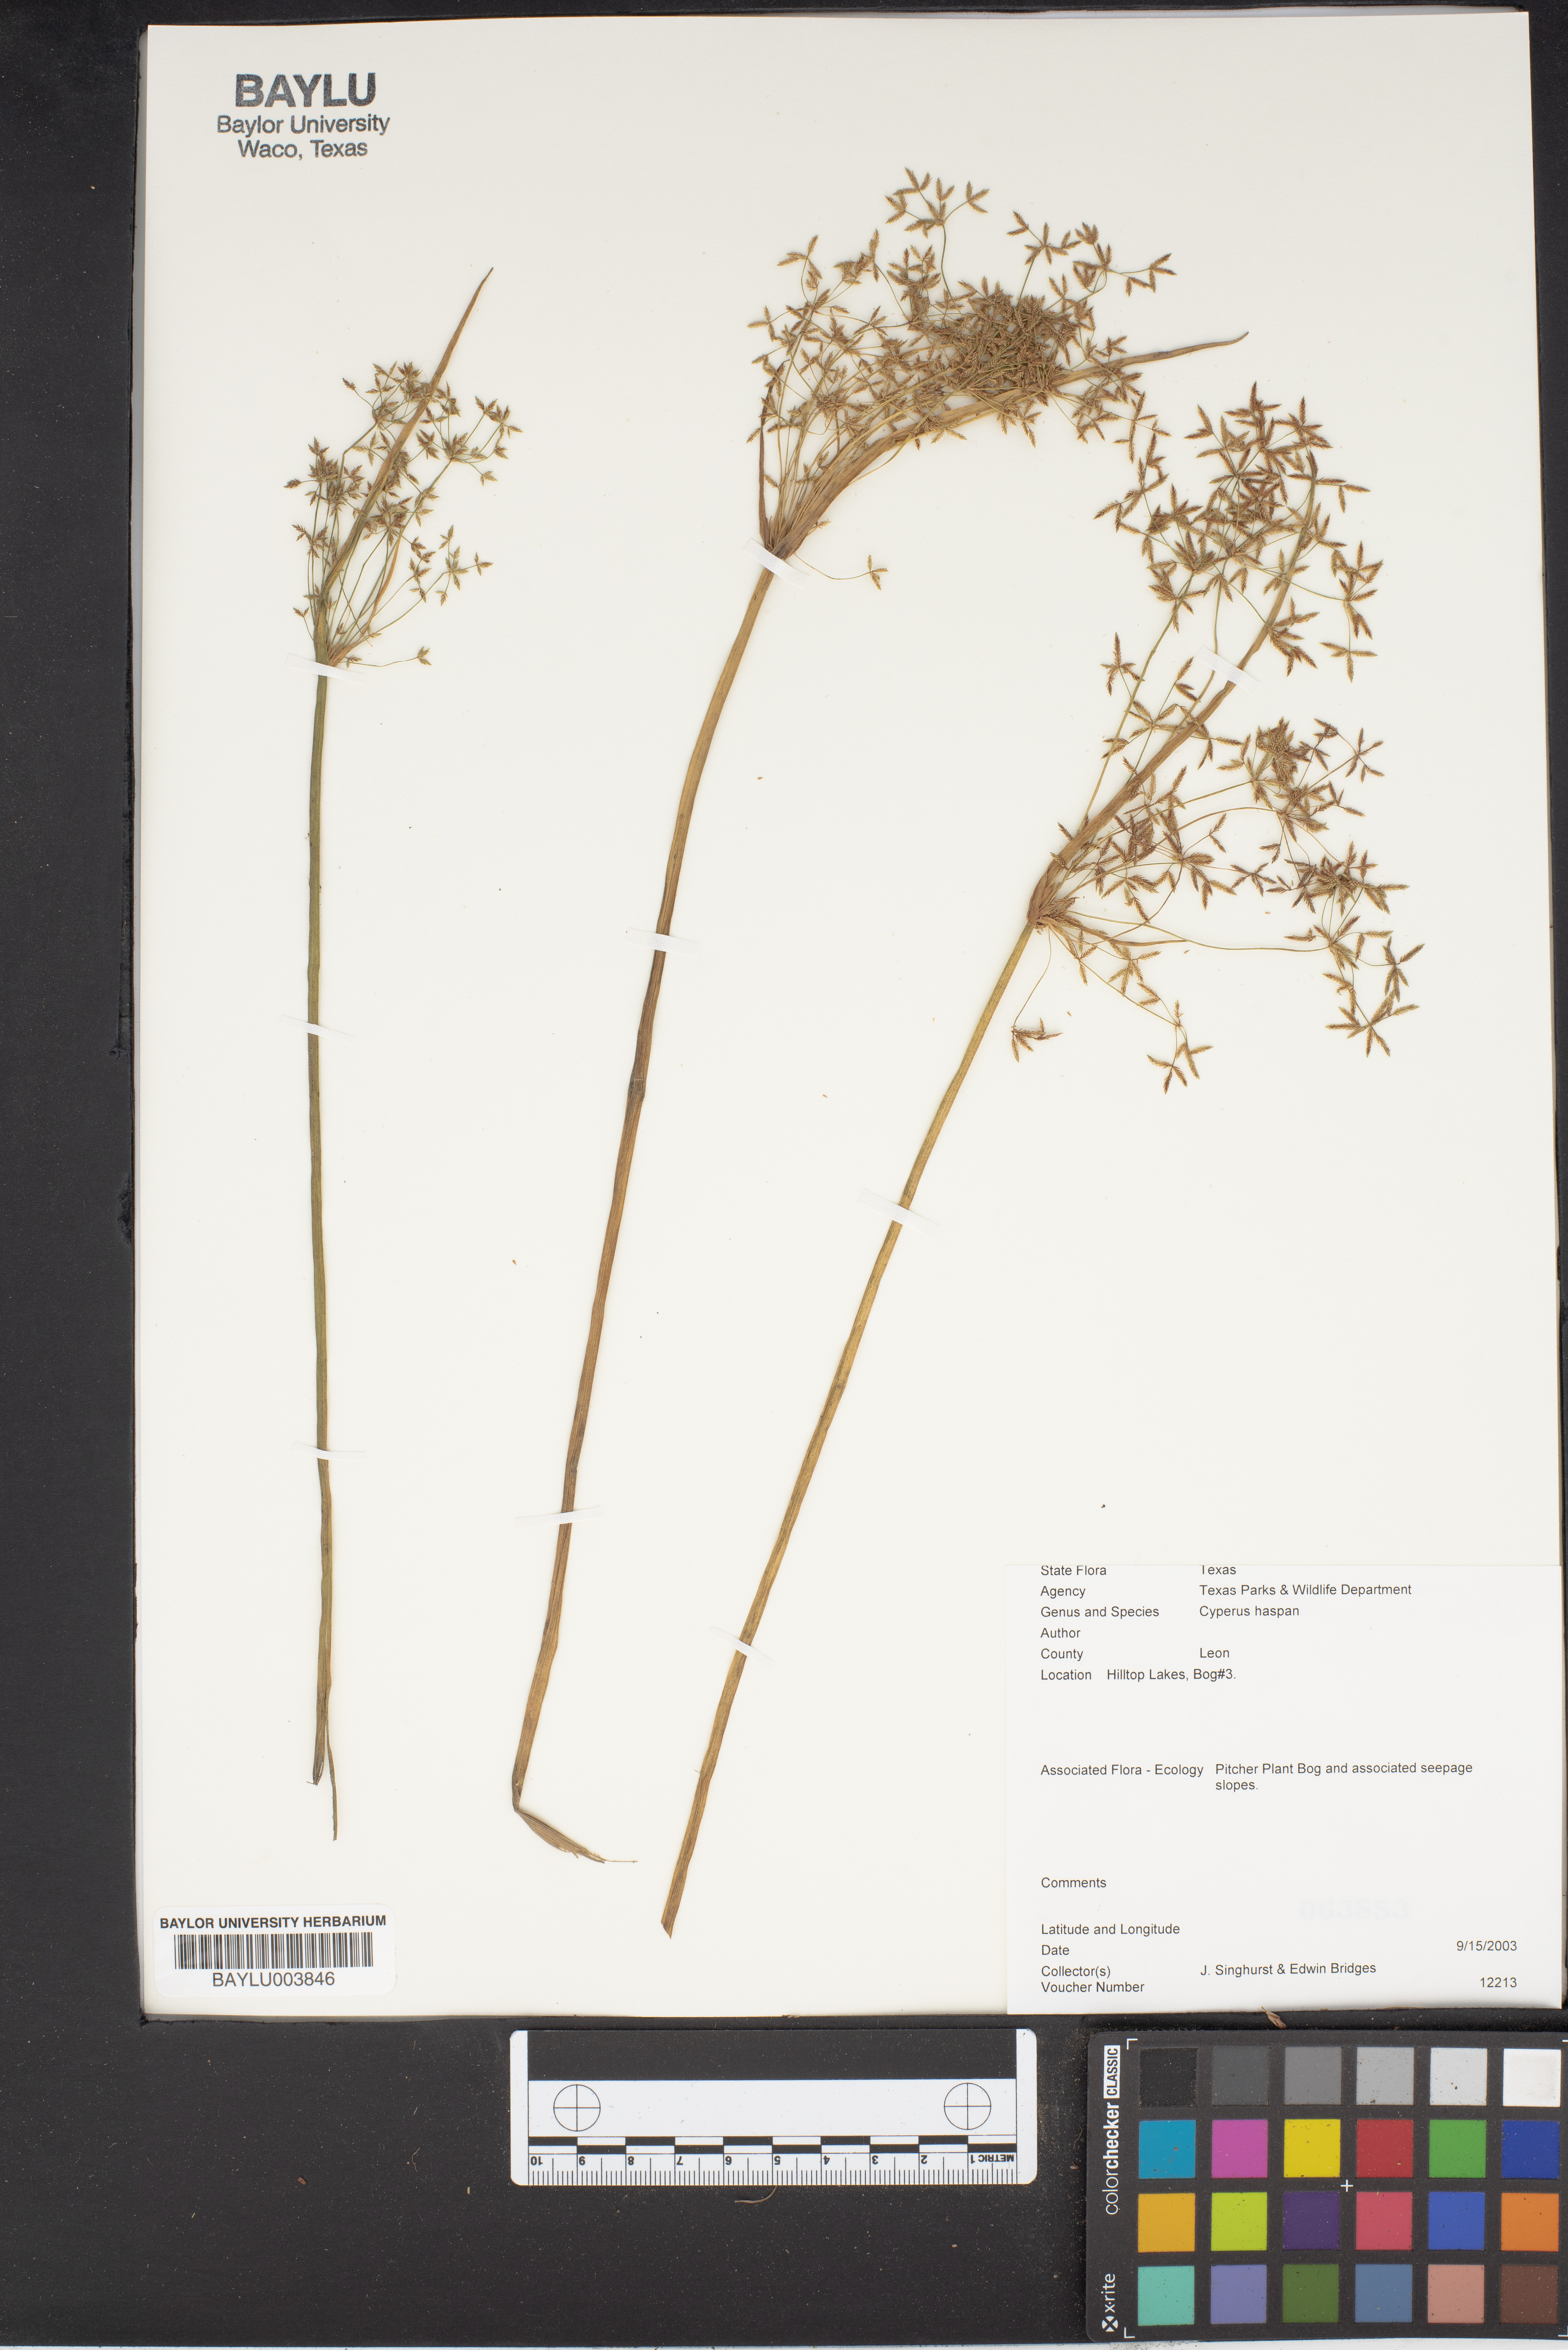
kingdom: Plantae
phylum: Tracheophyta
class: Liliopsida
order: Poales
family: Cyperaceae
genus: Cyperus
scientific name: Cyperus haspan
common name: Haspan flatsedge
